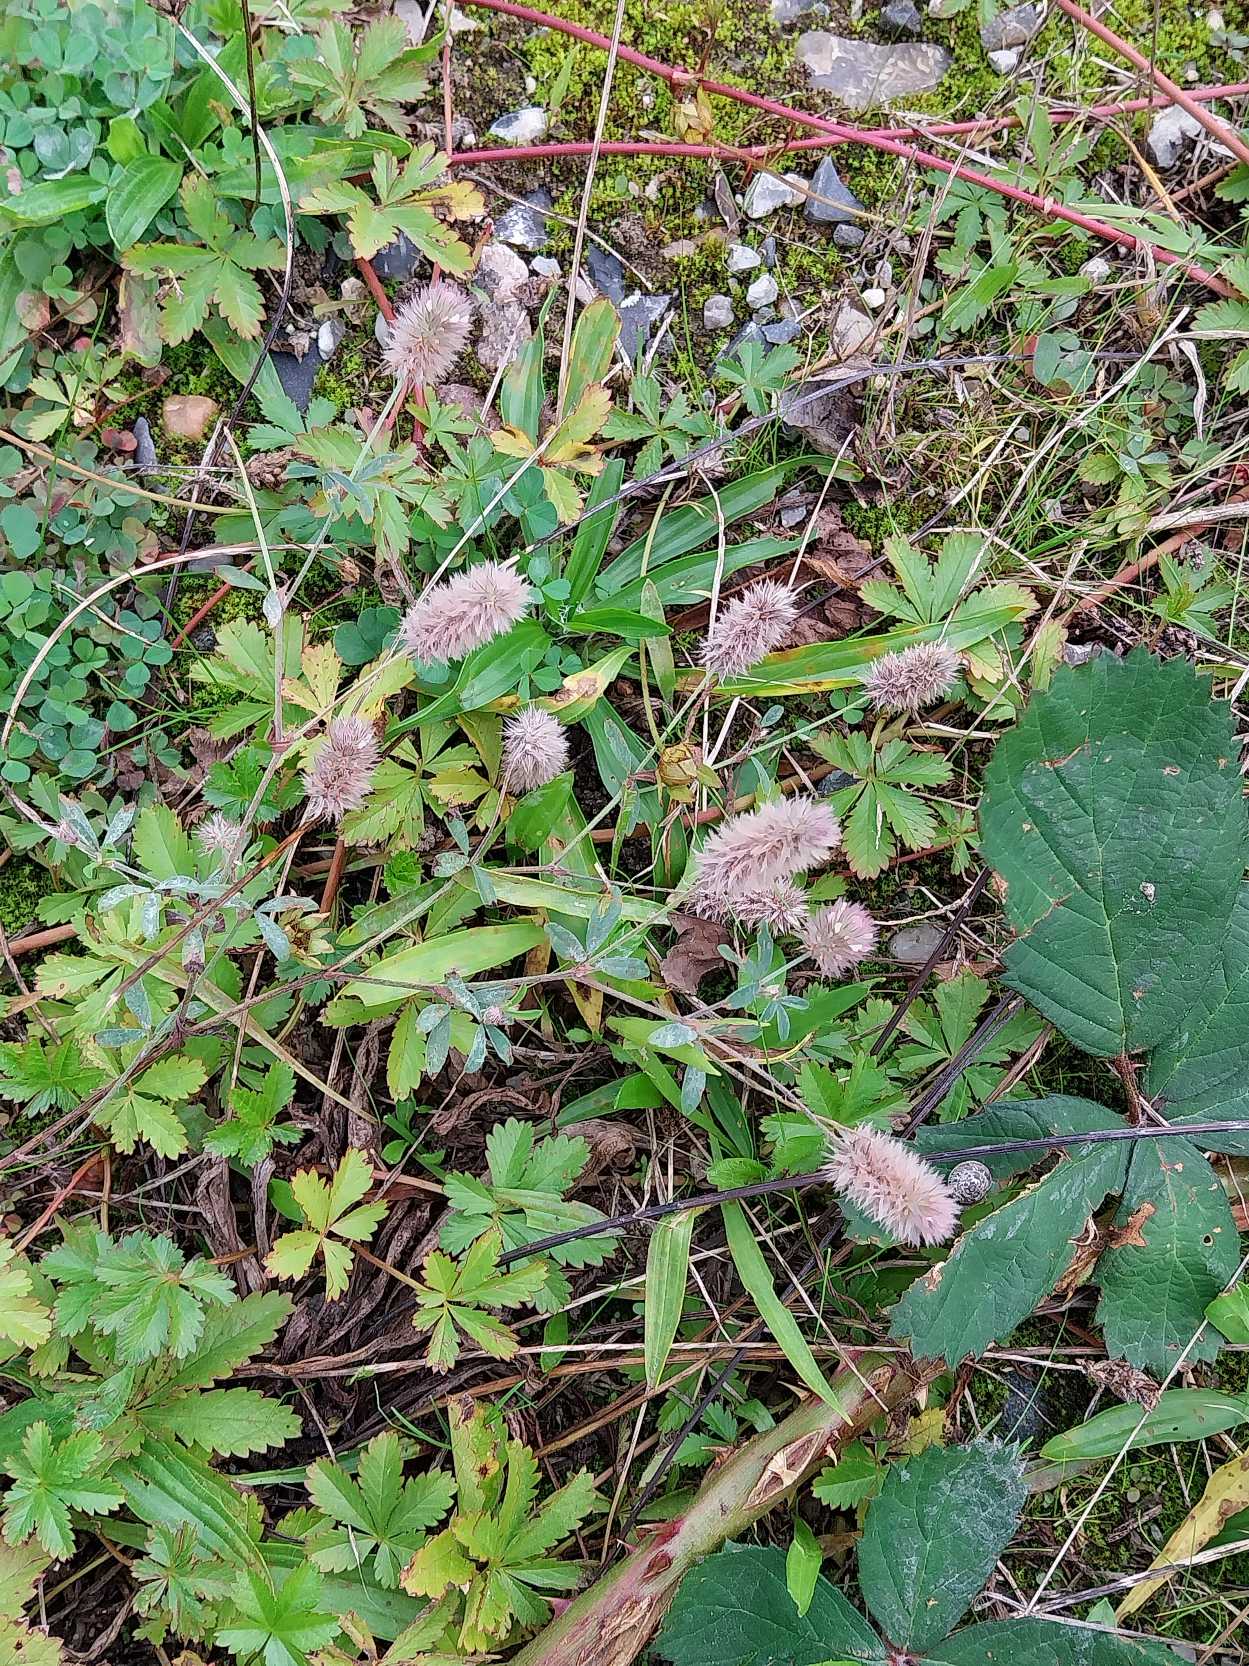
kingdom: Plantae
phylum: Tracheophyta
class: Magnoliopsida
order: Fabales
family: Fabaceae
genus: Trifolium
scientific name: Trifolium arvense
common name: Hare-kløver
